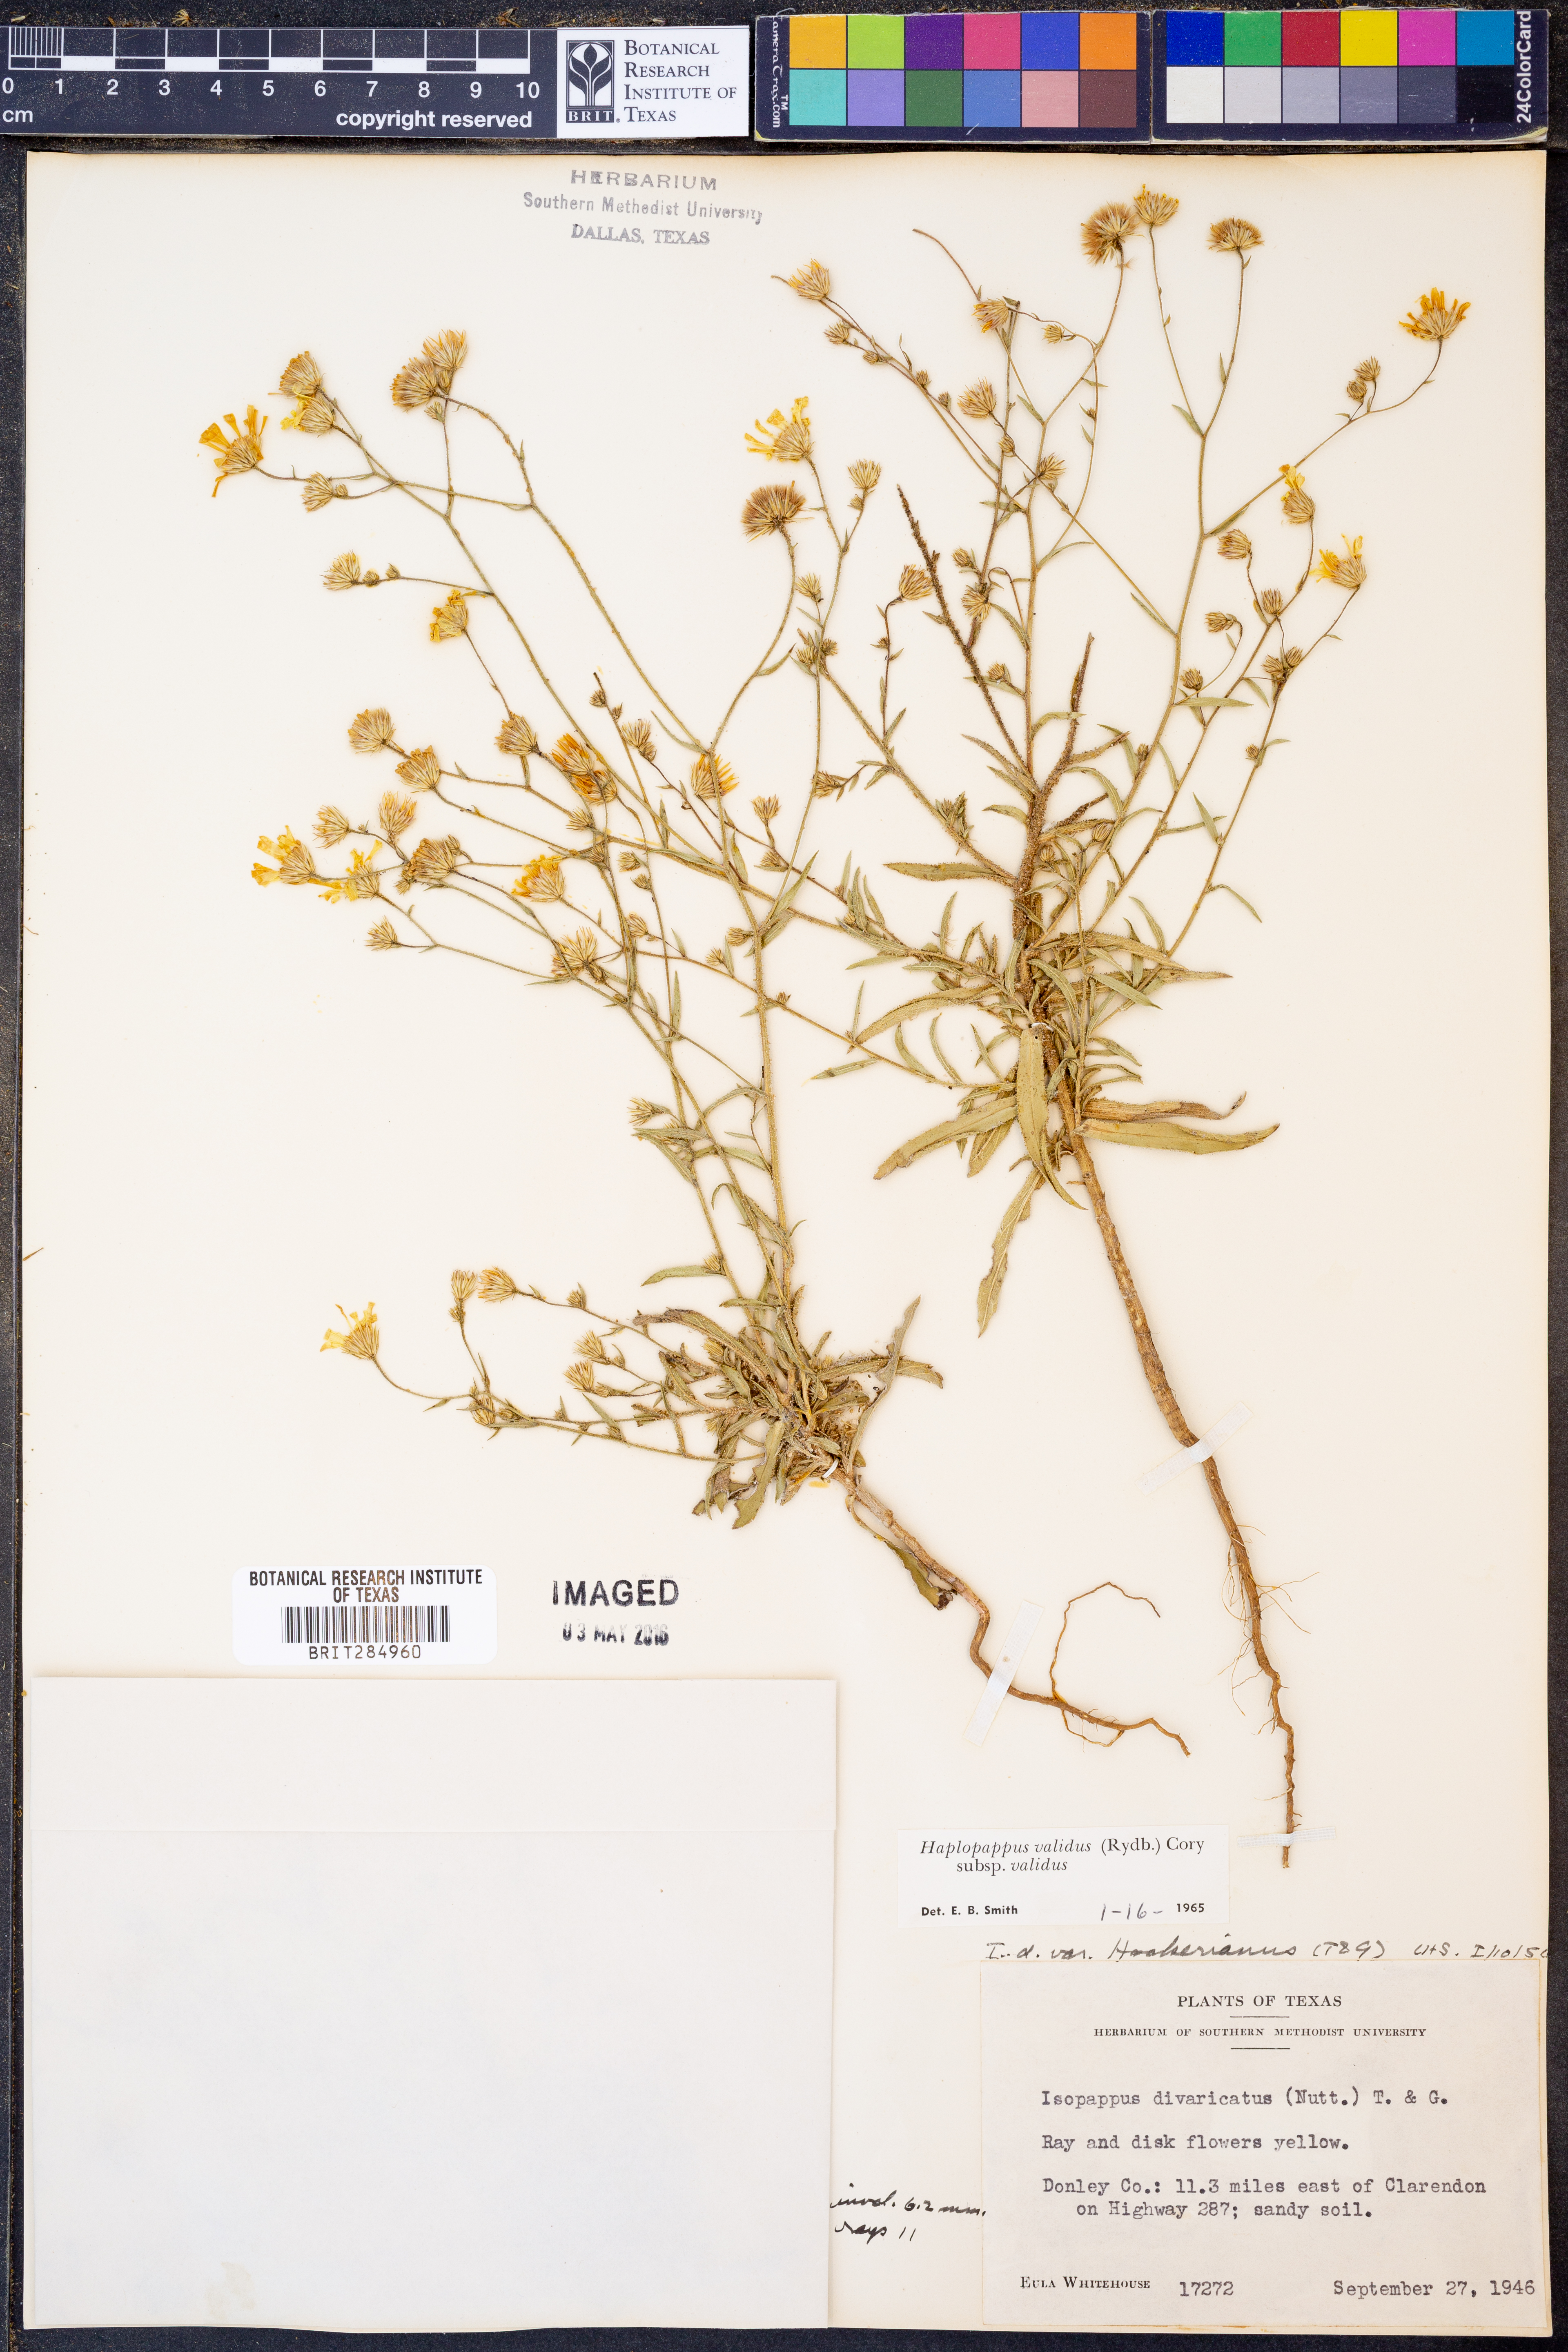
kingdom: Plantae
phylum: Tracheophyta
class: Magnoliopsida
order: Asterales
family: Asteraceae
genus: Croptilon
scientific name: Croptilon hookerianum
